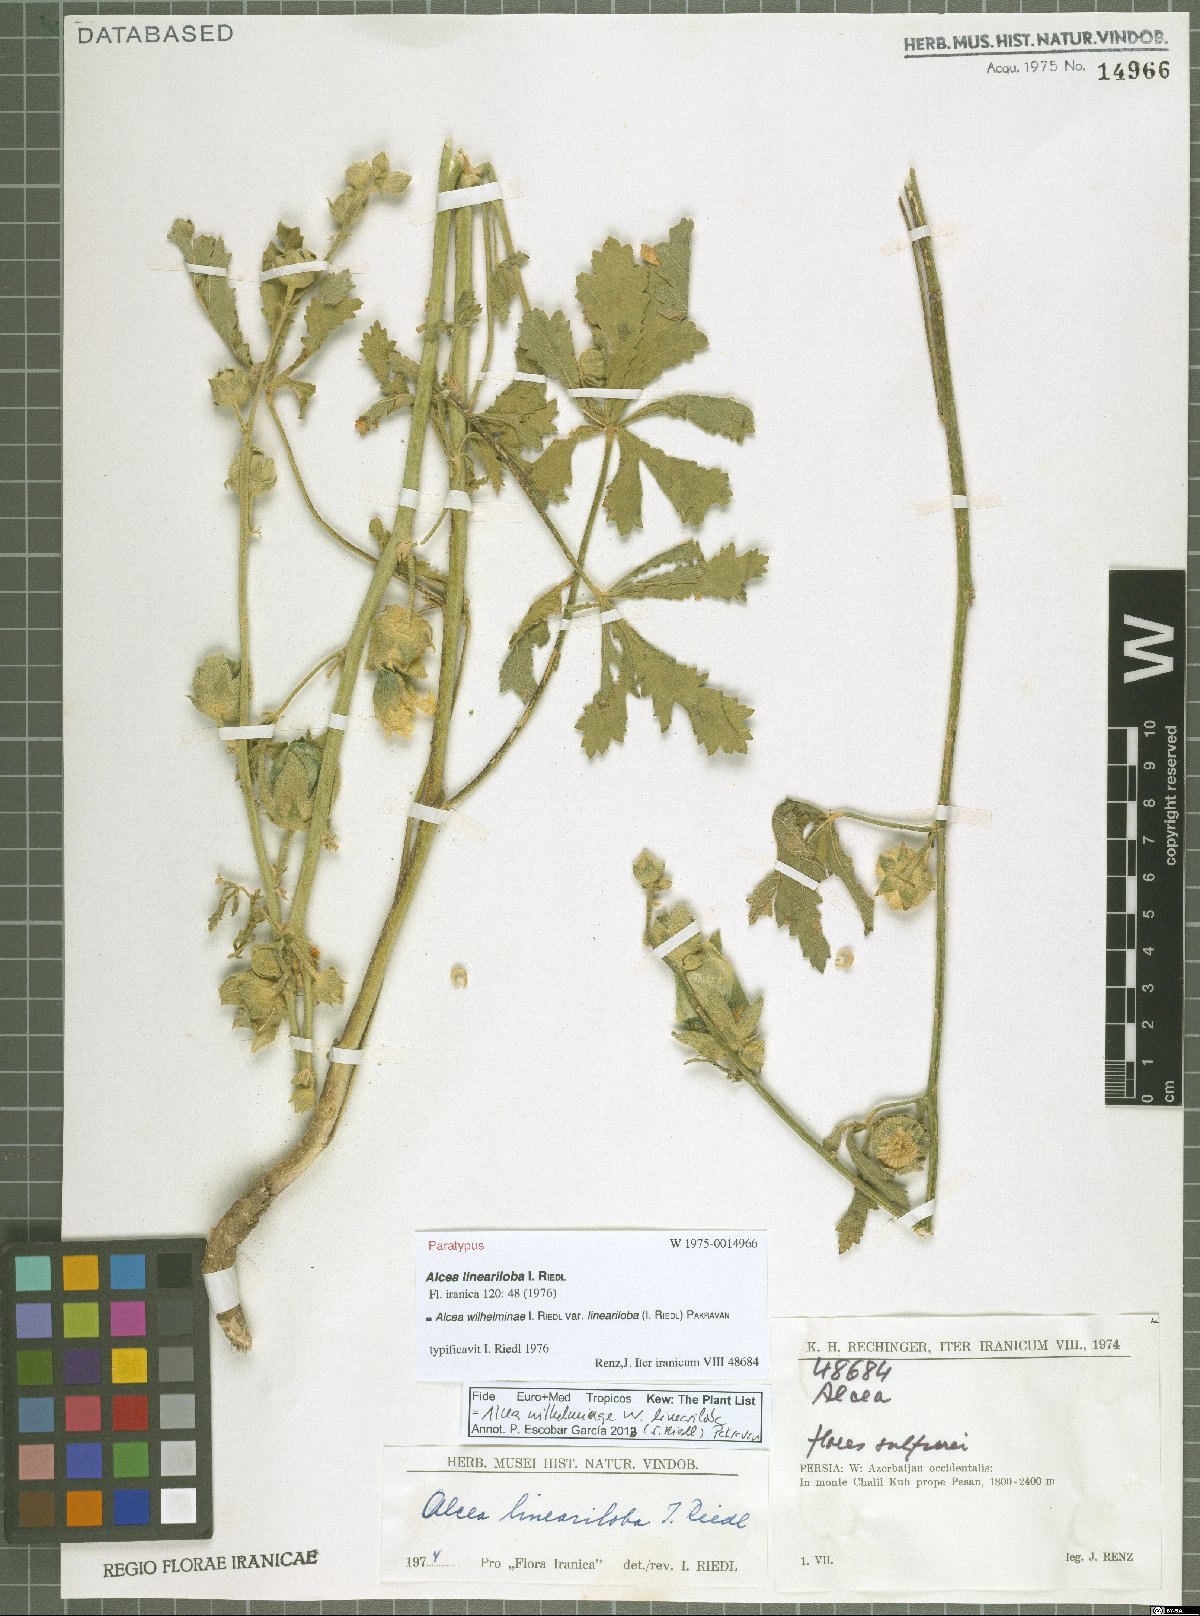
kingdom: Plantae
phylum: Tracheophyta
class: Magnoliopsida
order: Malvales
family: Malvaceae
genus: Alcea
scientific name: Alcea wilhelminae
